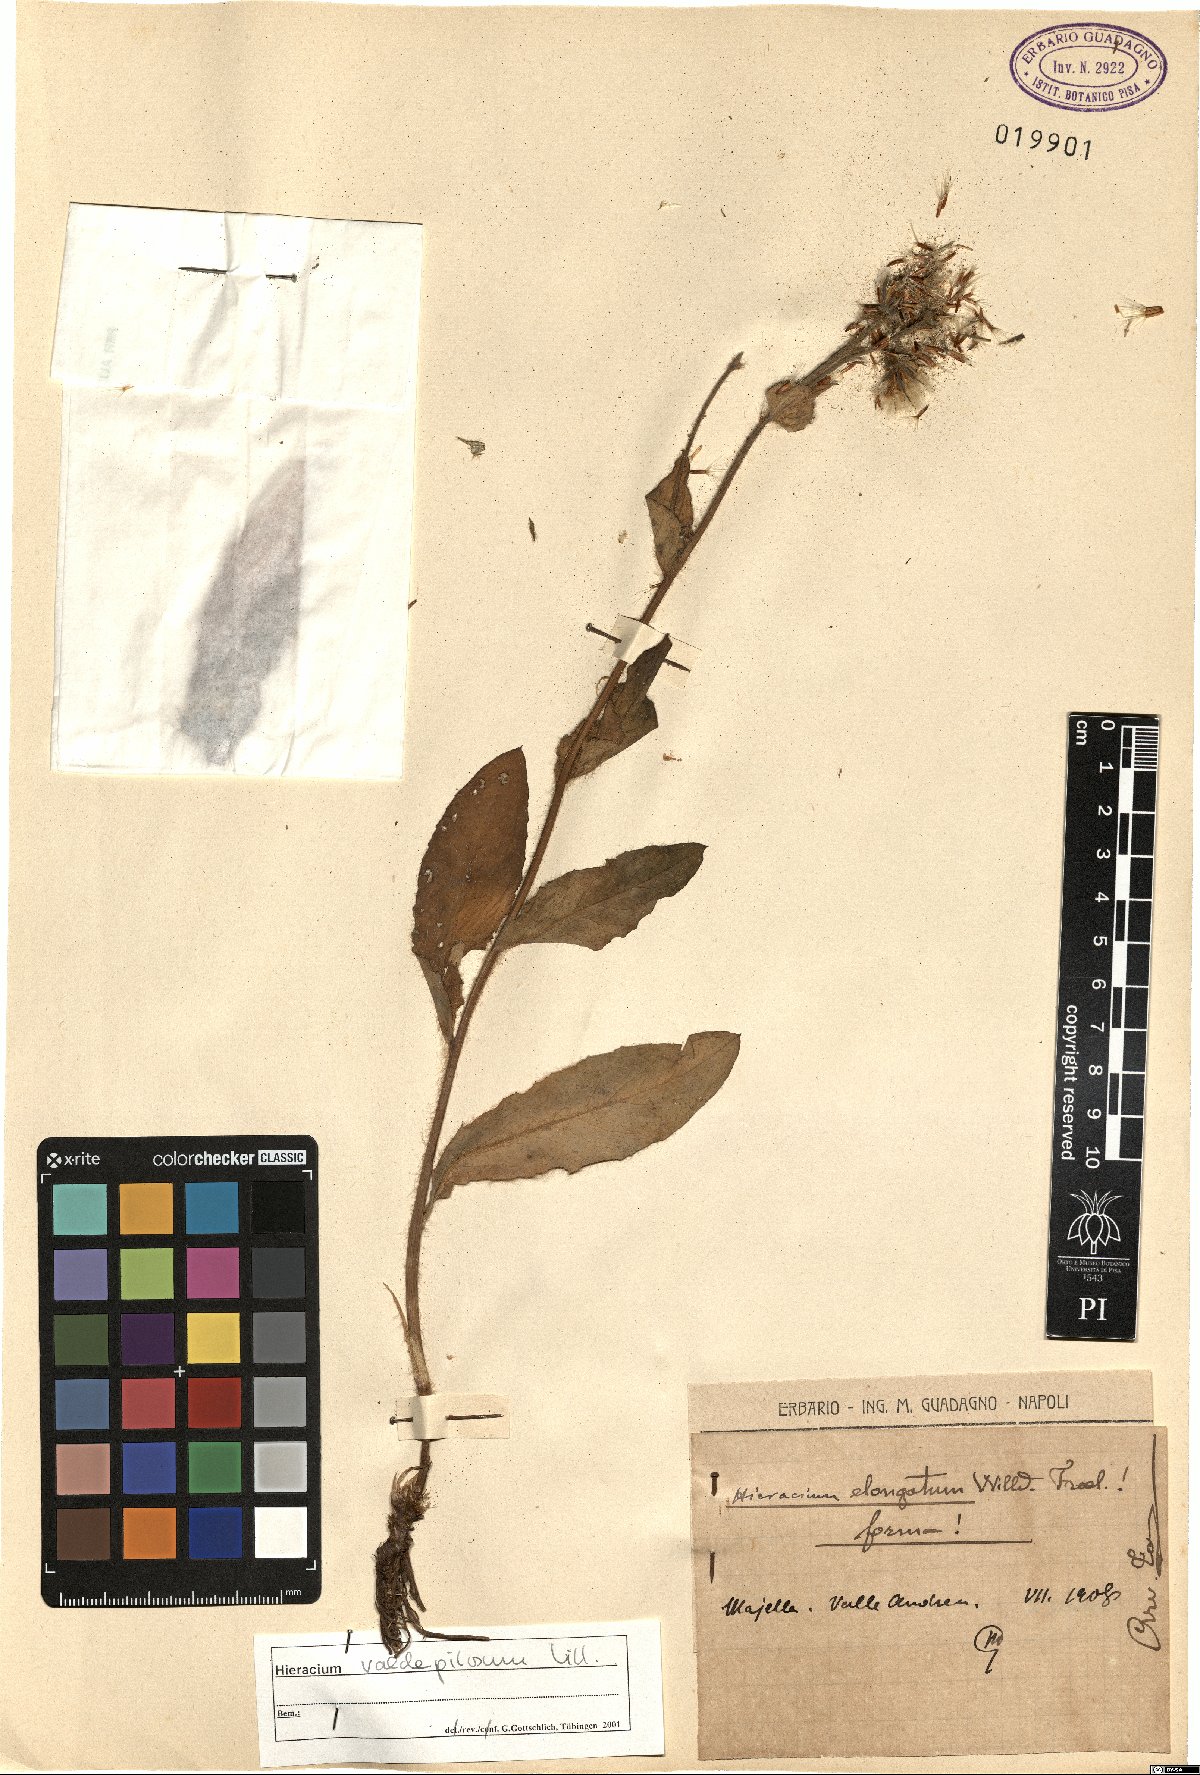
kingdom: Plantae
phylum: Tracheophyta
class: Magnoliopsida
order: Asterales
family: Asteraceae
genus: Hieracium
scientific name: Hieracium valdepilosum
